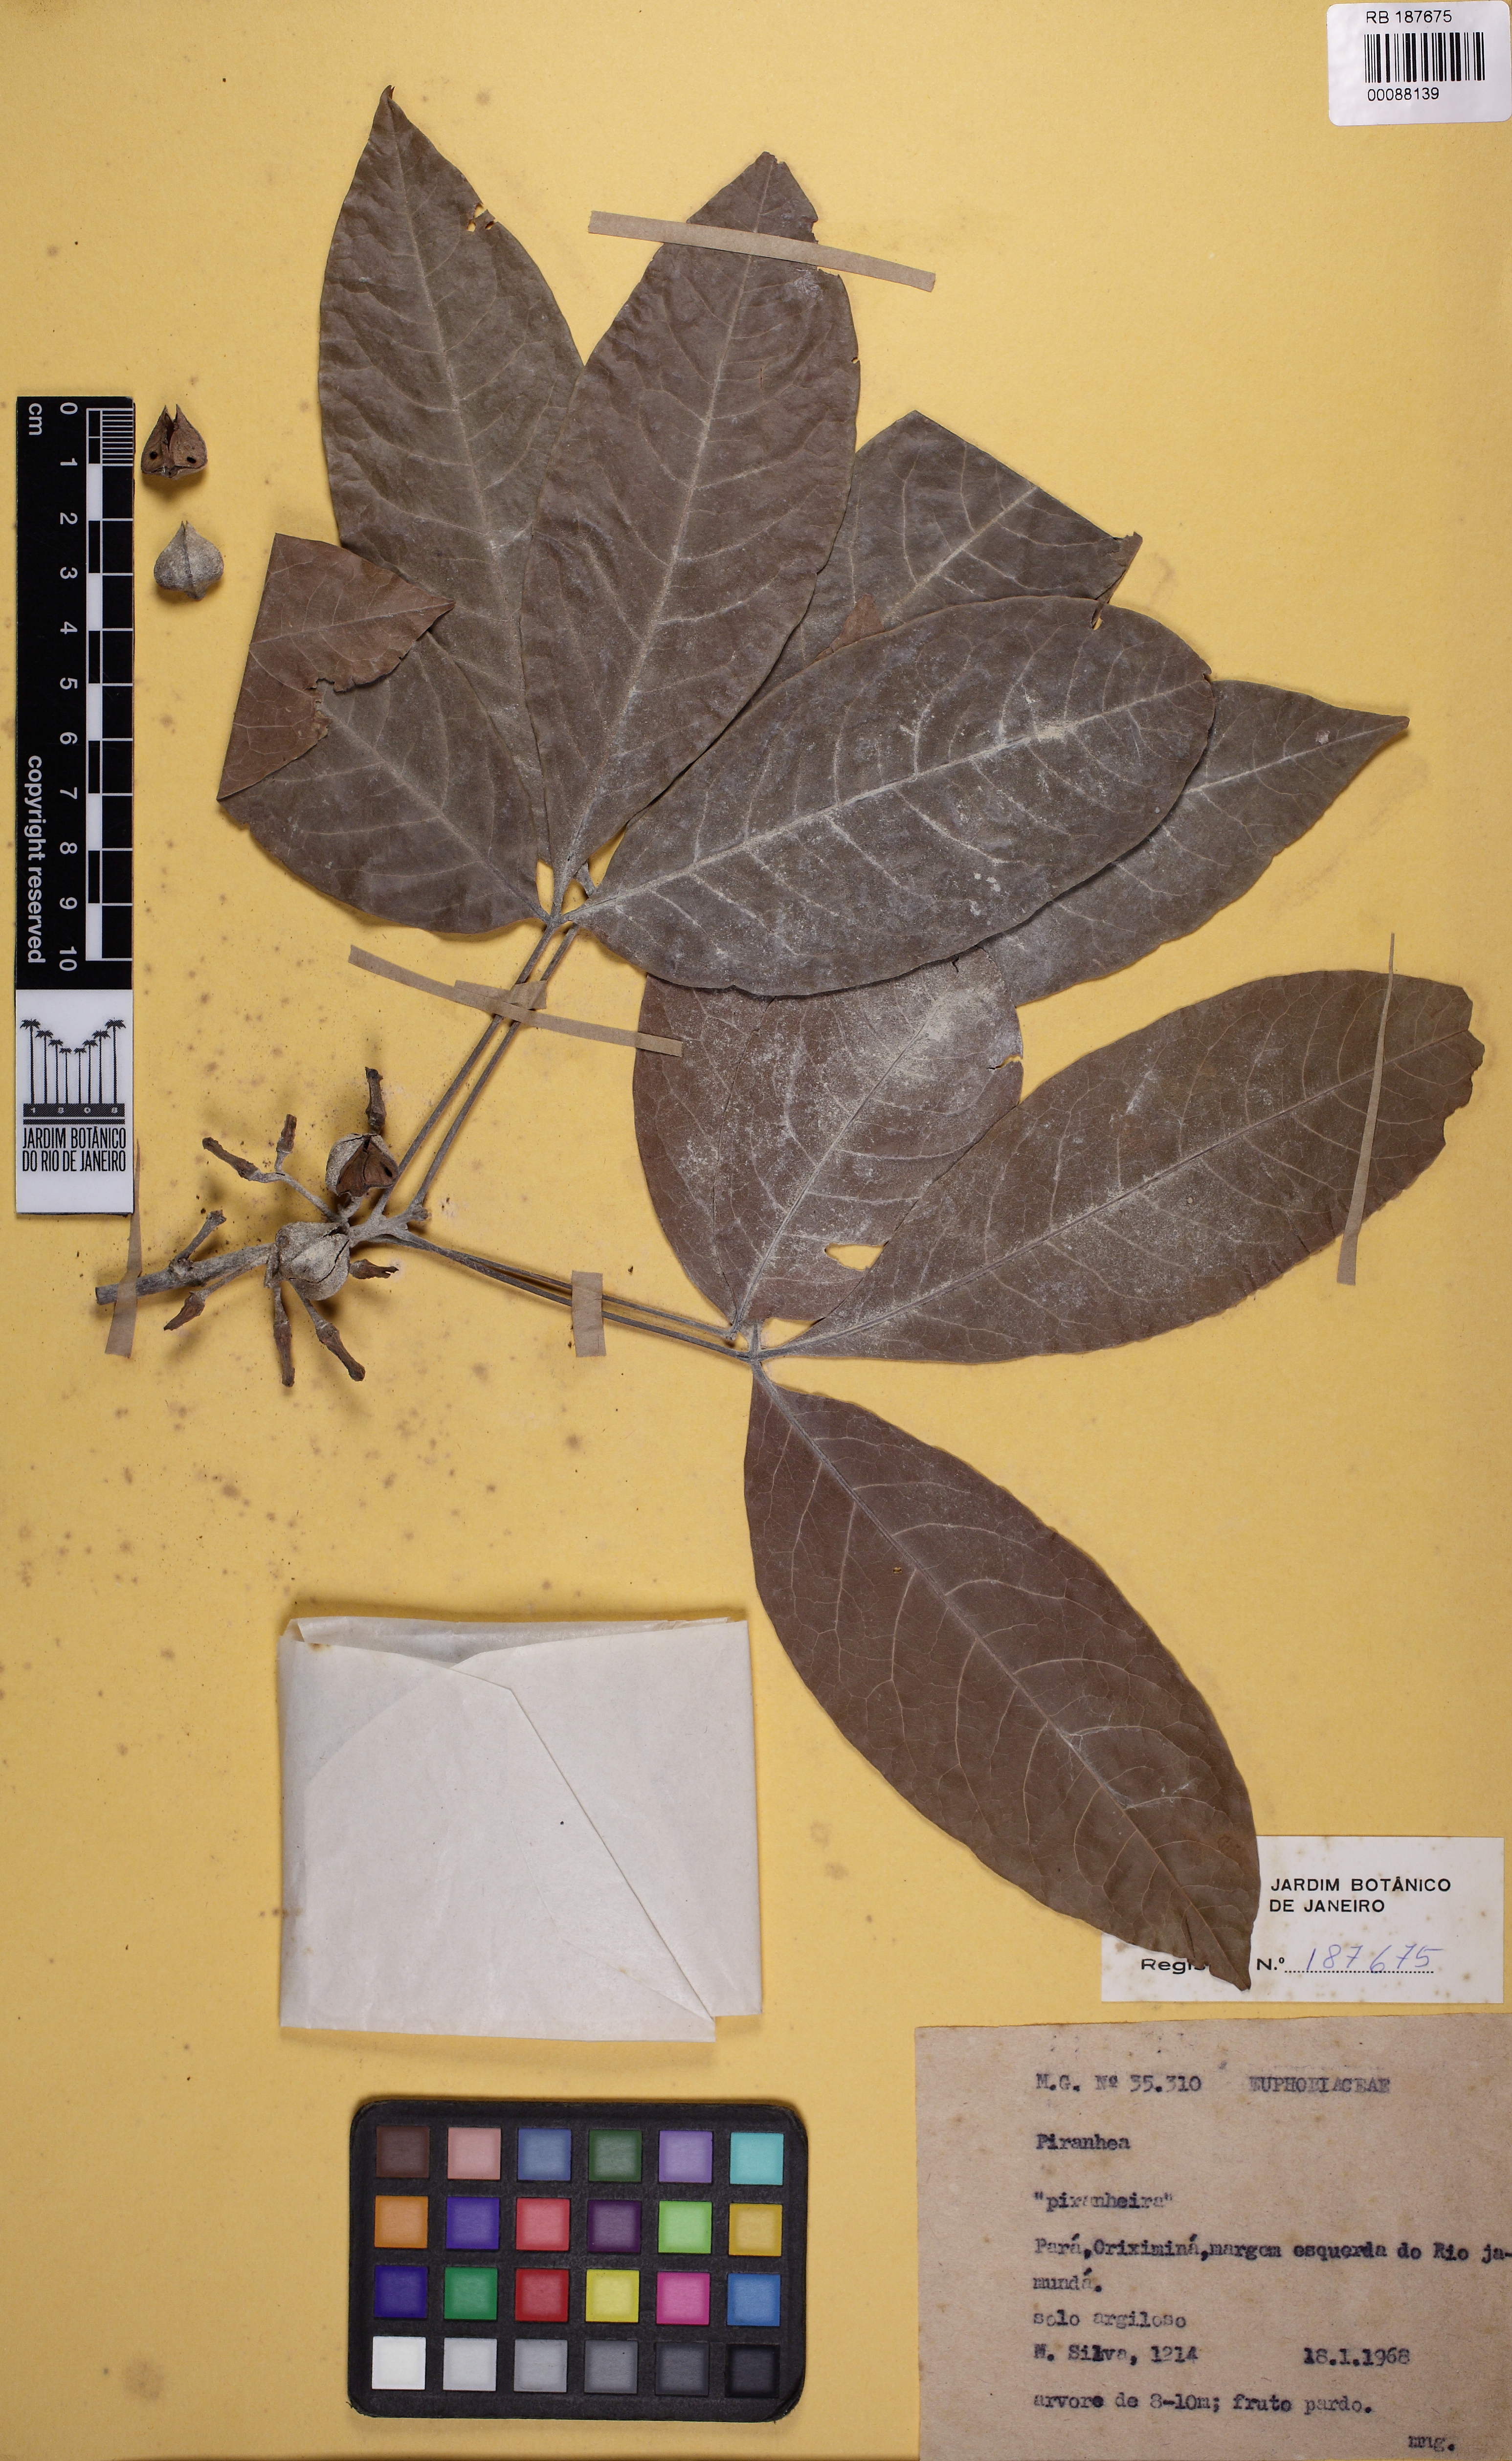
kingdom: Plantae
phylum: Tracheophyta
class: Magnoliopsida
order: Malpighiales
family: Picrodendraceae
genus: Piranhea
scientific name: Piranhea
